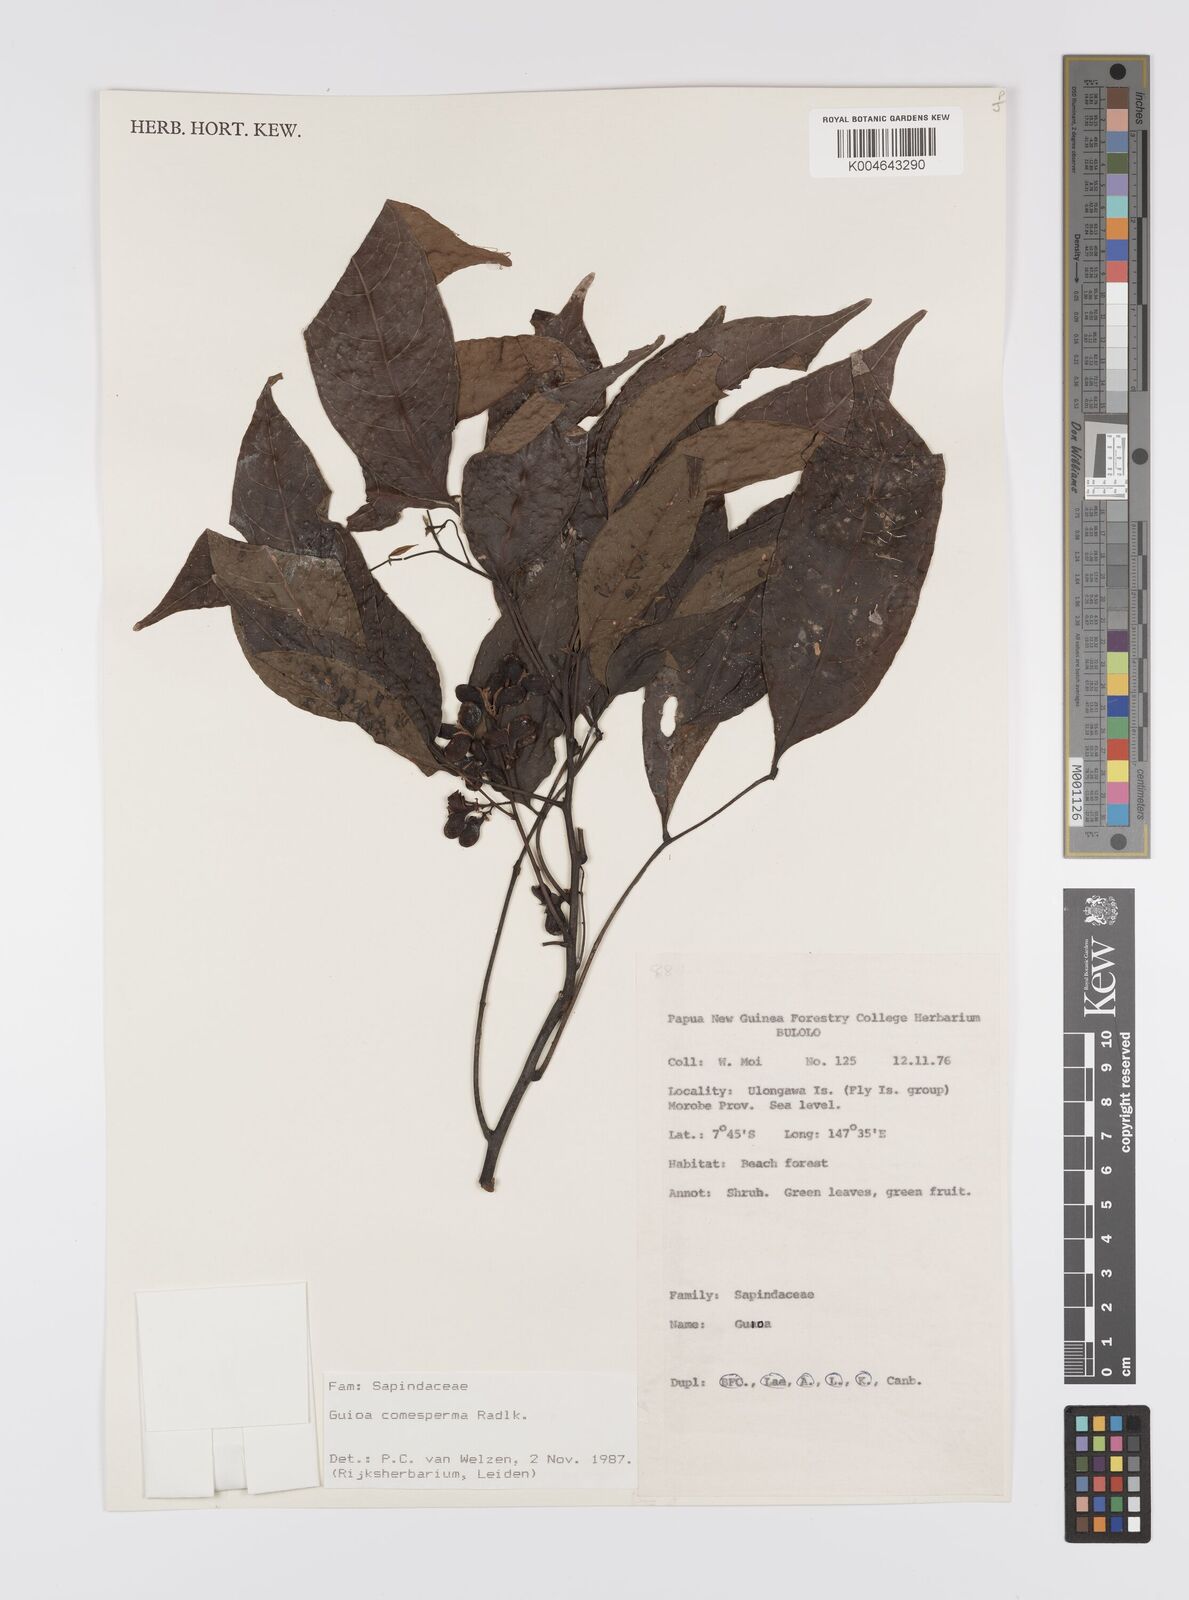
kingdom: Plantae
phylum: Tracheophyta
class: Magnoliopsida
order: Sapindales
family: Sapindaceae
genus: Guioa
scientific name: Guioa comesperma
